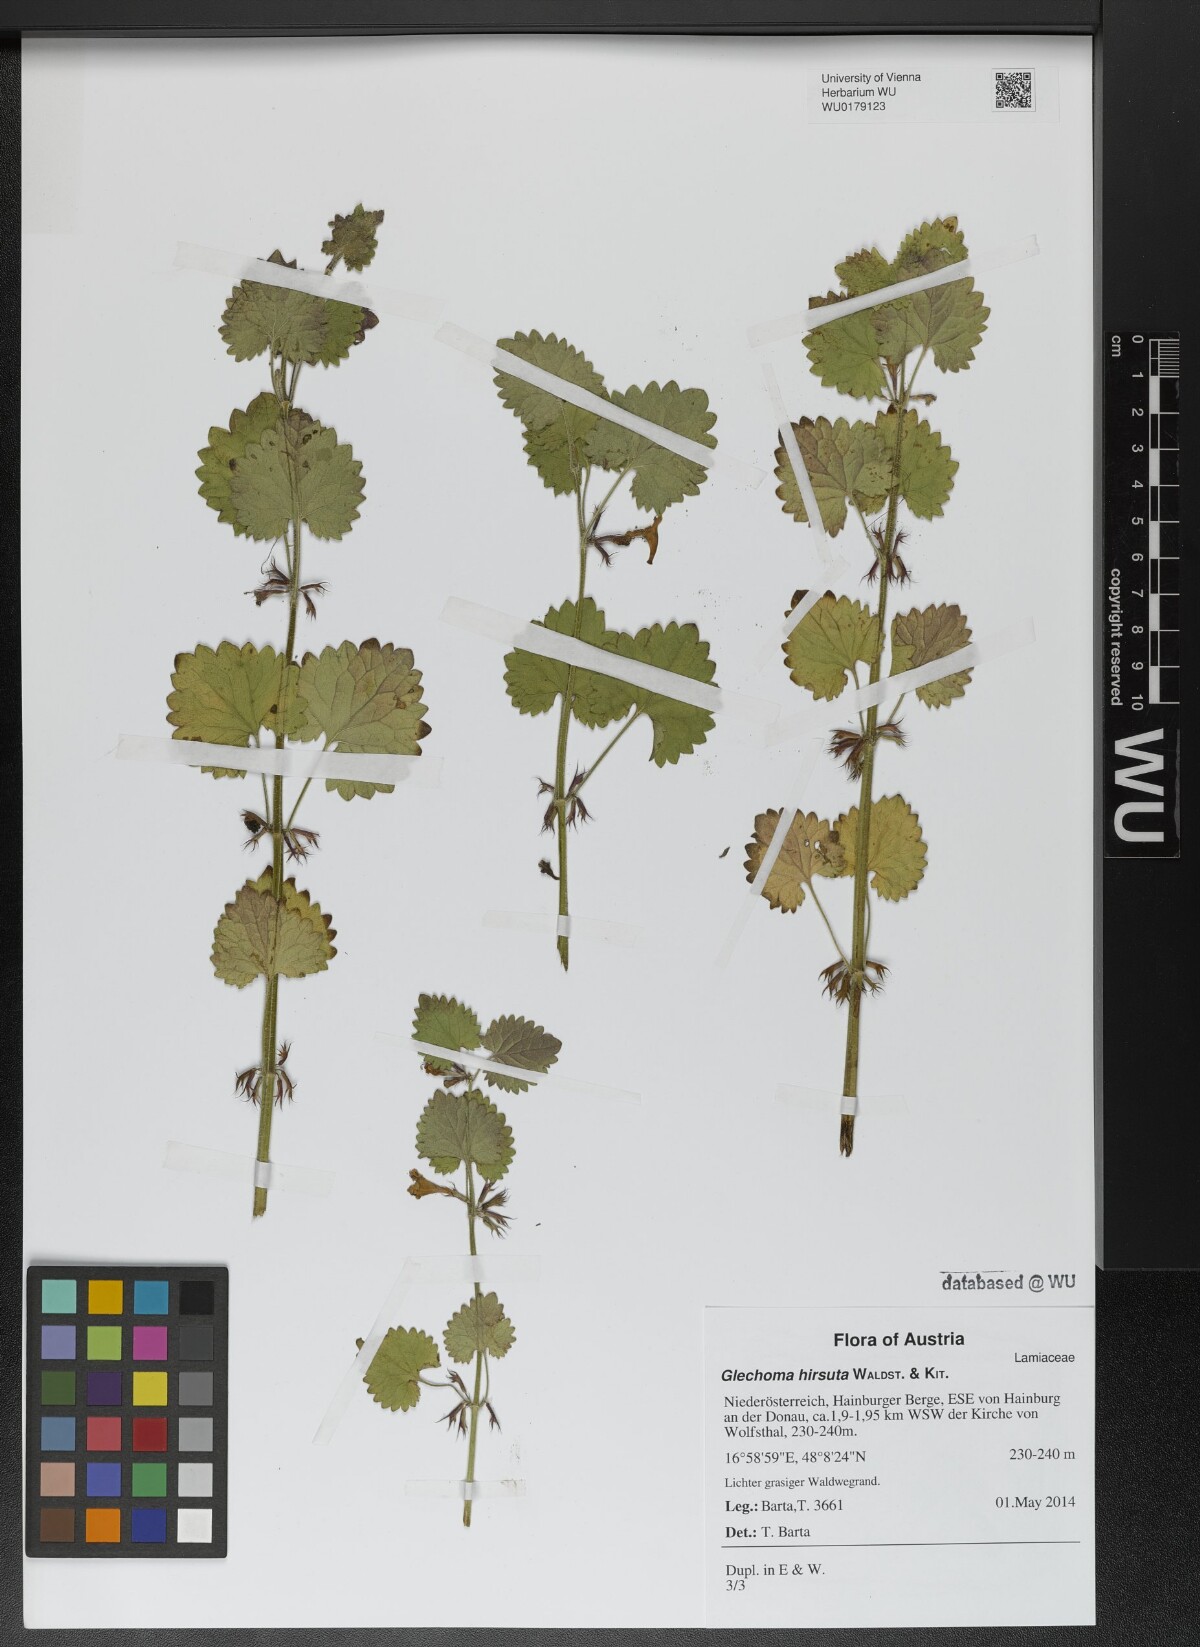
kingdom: Plantae
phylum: Tracheophyta
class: Magnoliopsida
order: Lamiales
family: Lamiaceae
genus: Glechoma
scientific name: Glechoma hirsuta
